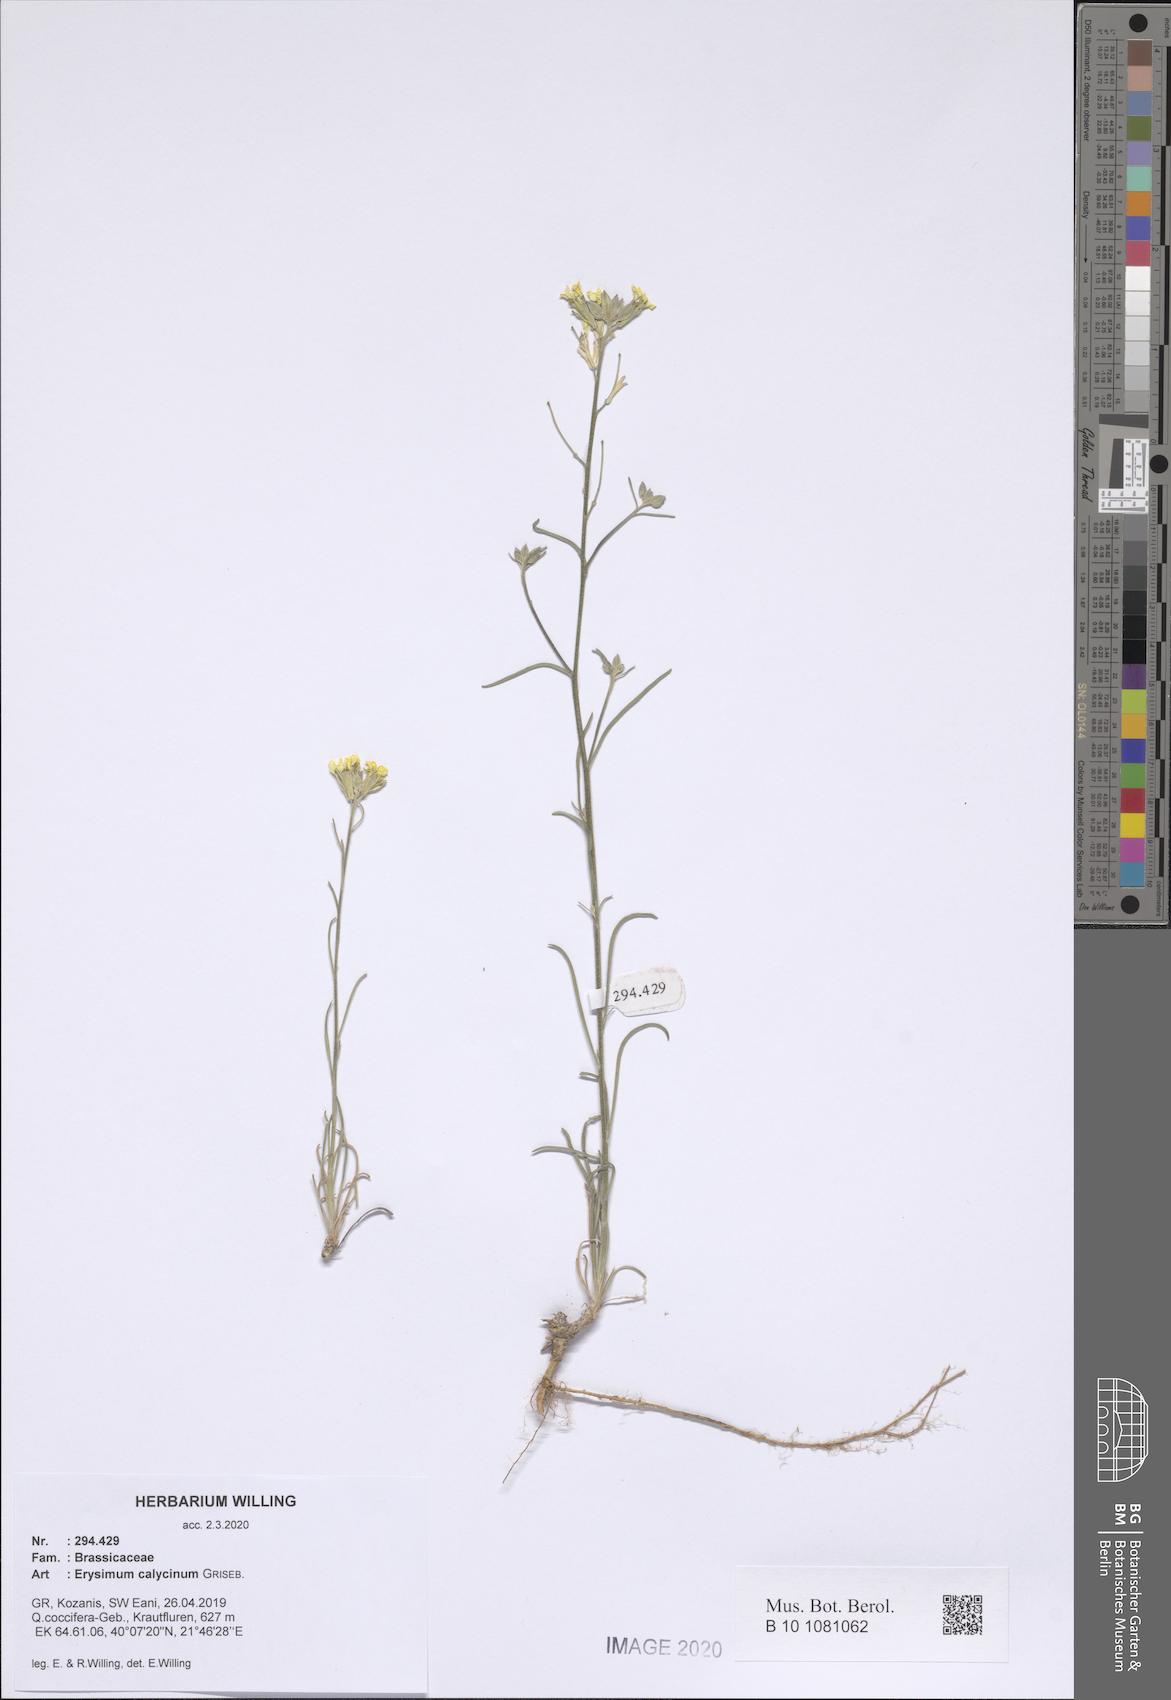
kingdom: Plantae
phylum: Tracheophyta
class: Magnoliopsida
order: Brassicales
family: Brassicaceae
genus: Erysimum
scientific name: Erysimum calycinum
